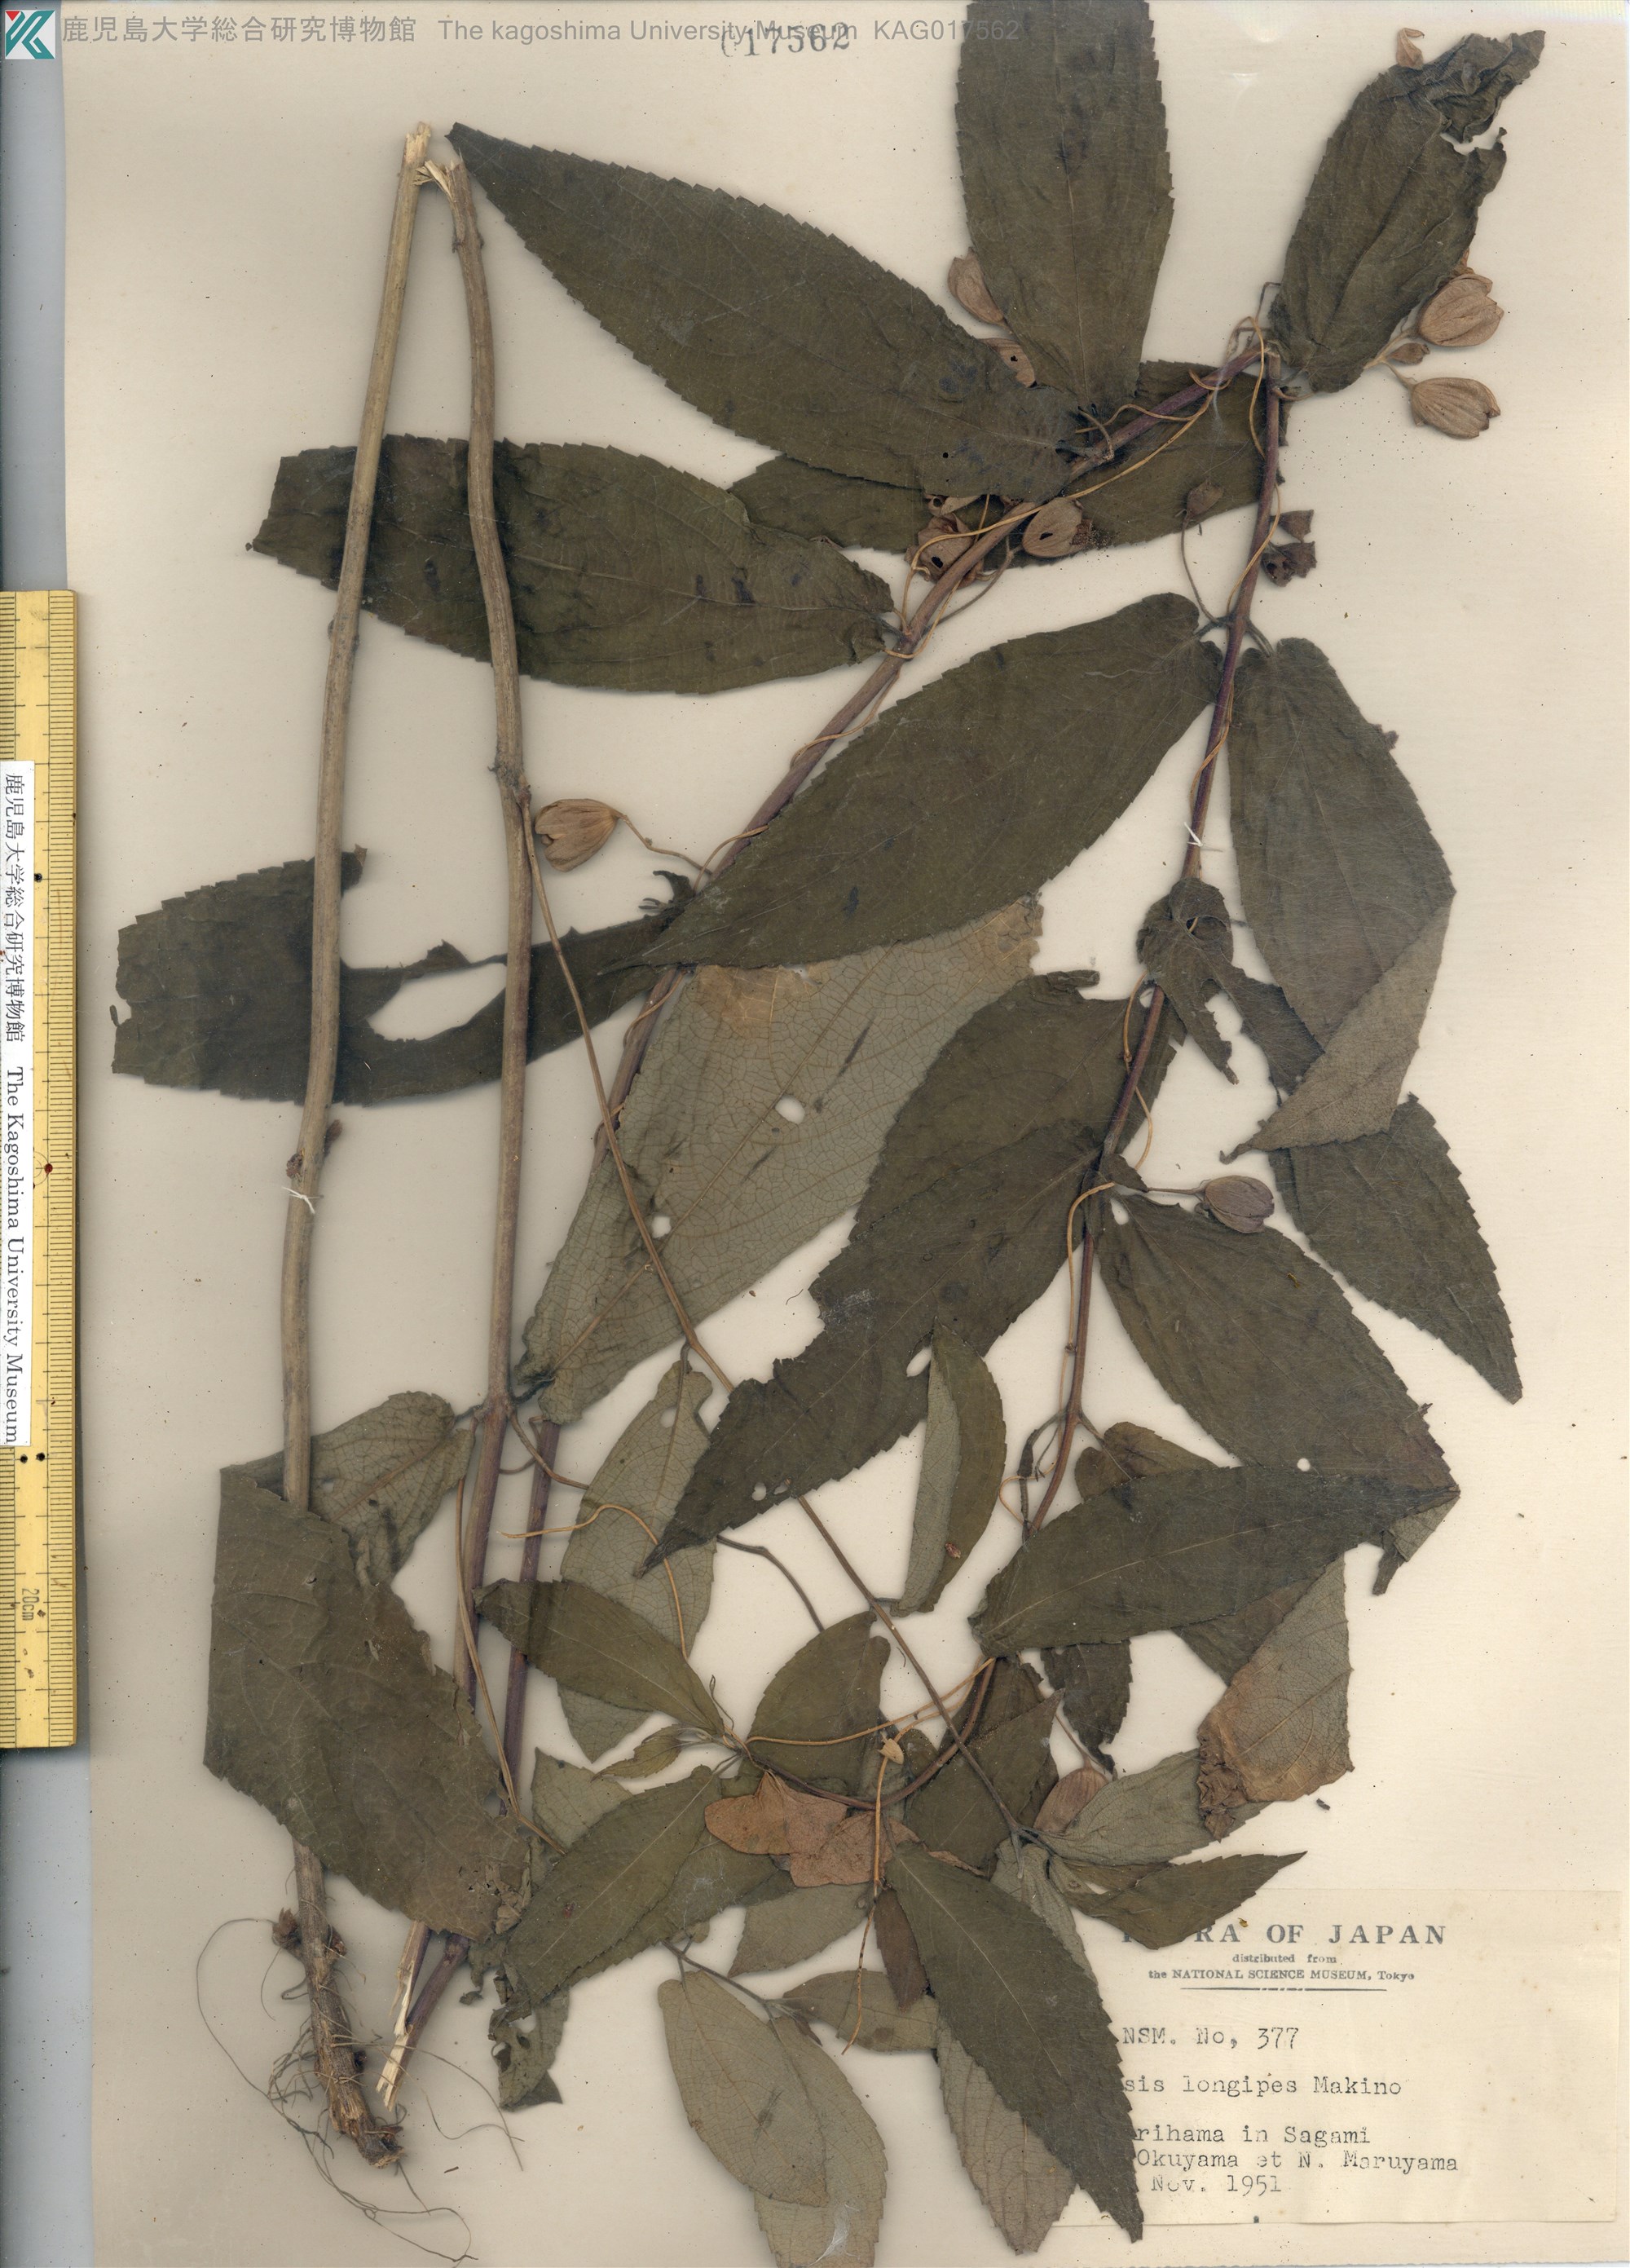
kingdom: Plantae
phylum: Tracheophyta
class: Magnoliopsida
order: Lamiales
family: Lamiaceae
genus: Chelonopsis
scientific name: Chelonopsis longipes
